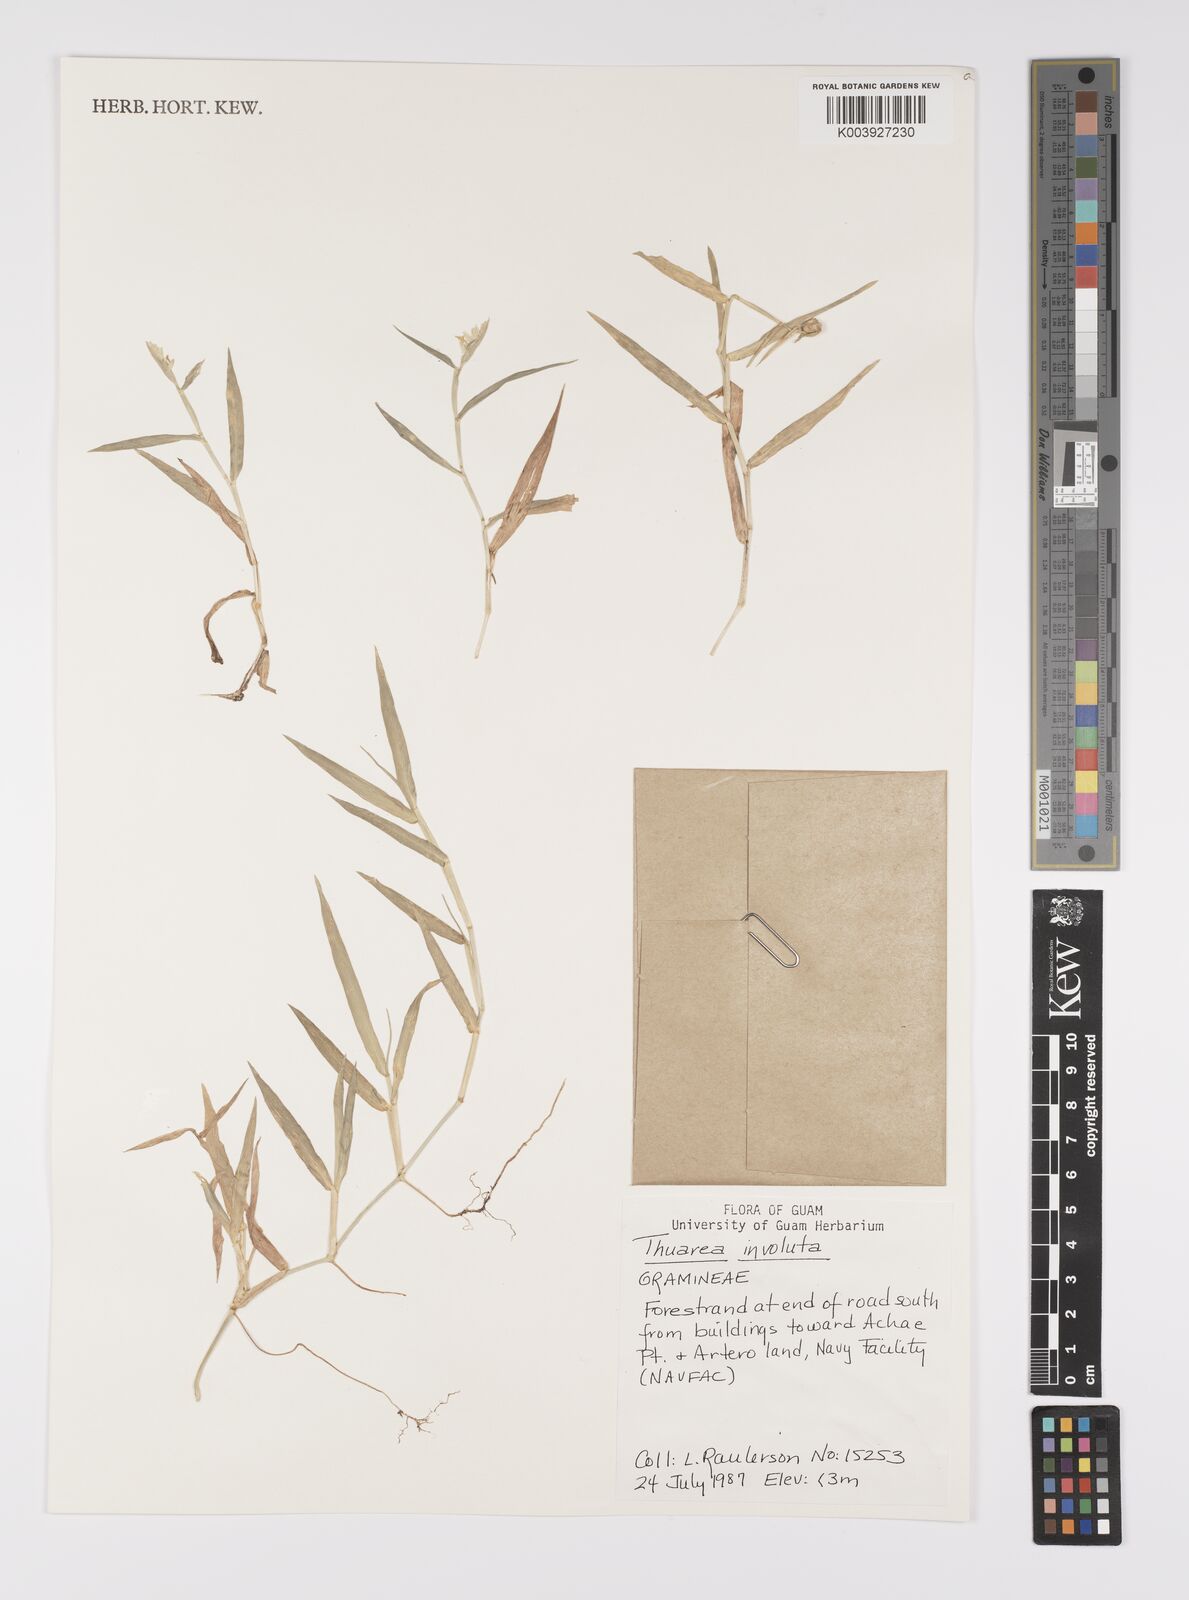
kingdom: Plantae
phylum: Tracheophyta
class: Liliopsida
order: Poales
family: Poaceae
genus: Thuarea
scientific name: Thuarea involuta
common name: Tropical beach grass
